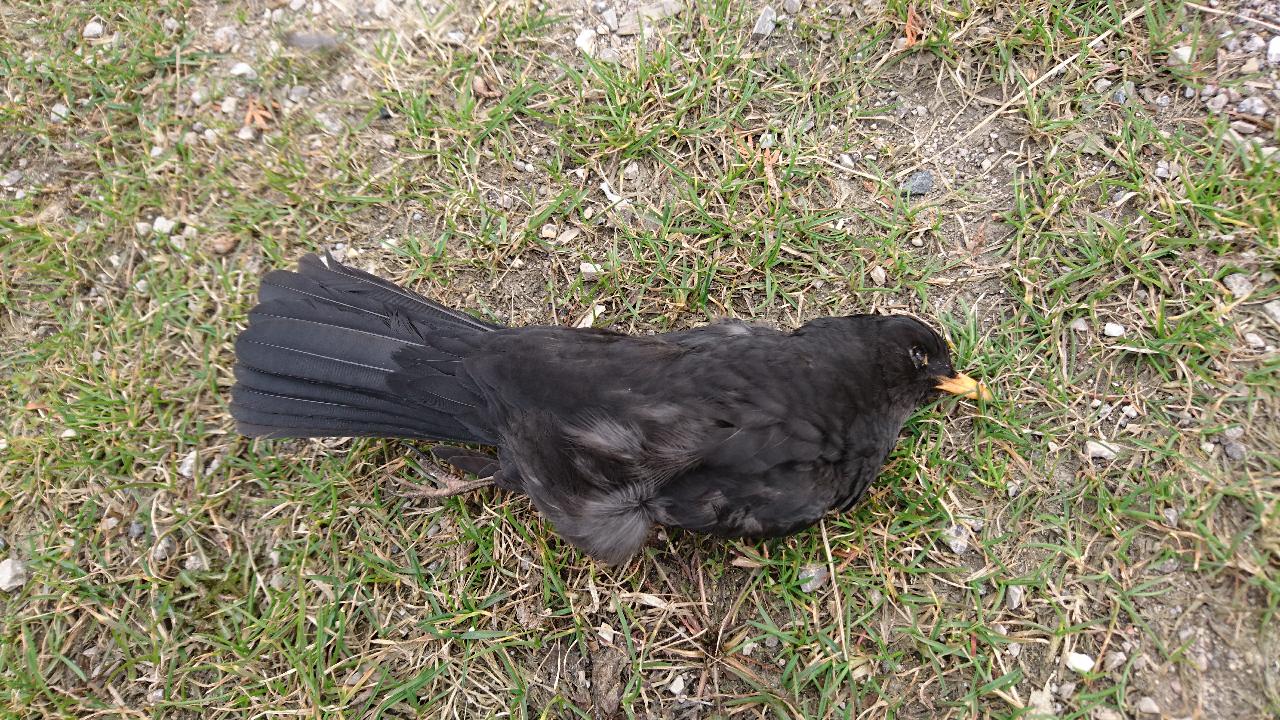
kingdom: Animalia
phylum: Chordata
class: Aves
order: Passeriformes
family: Turdidae
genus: Turdus
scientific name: Turdus merula
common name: Common blackbird
